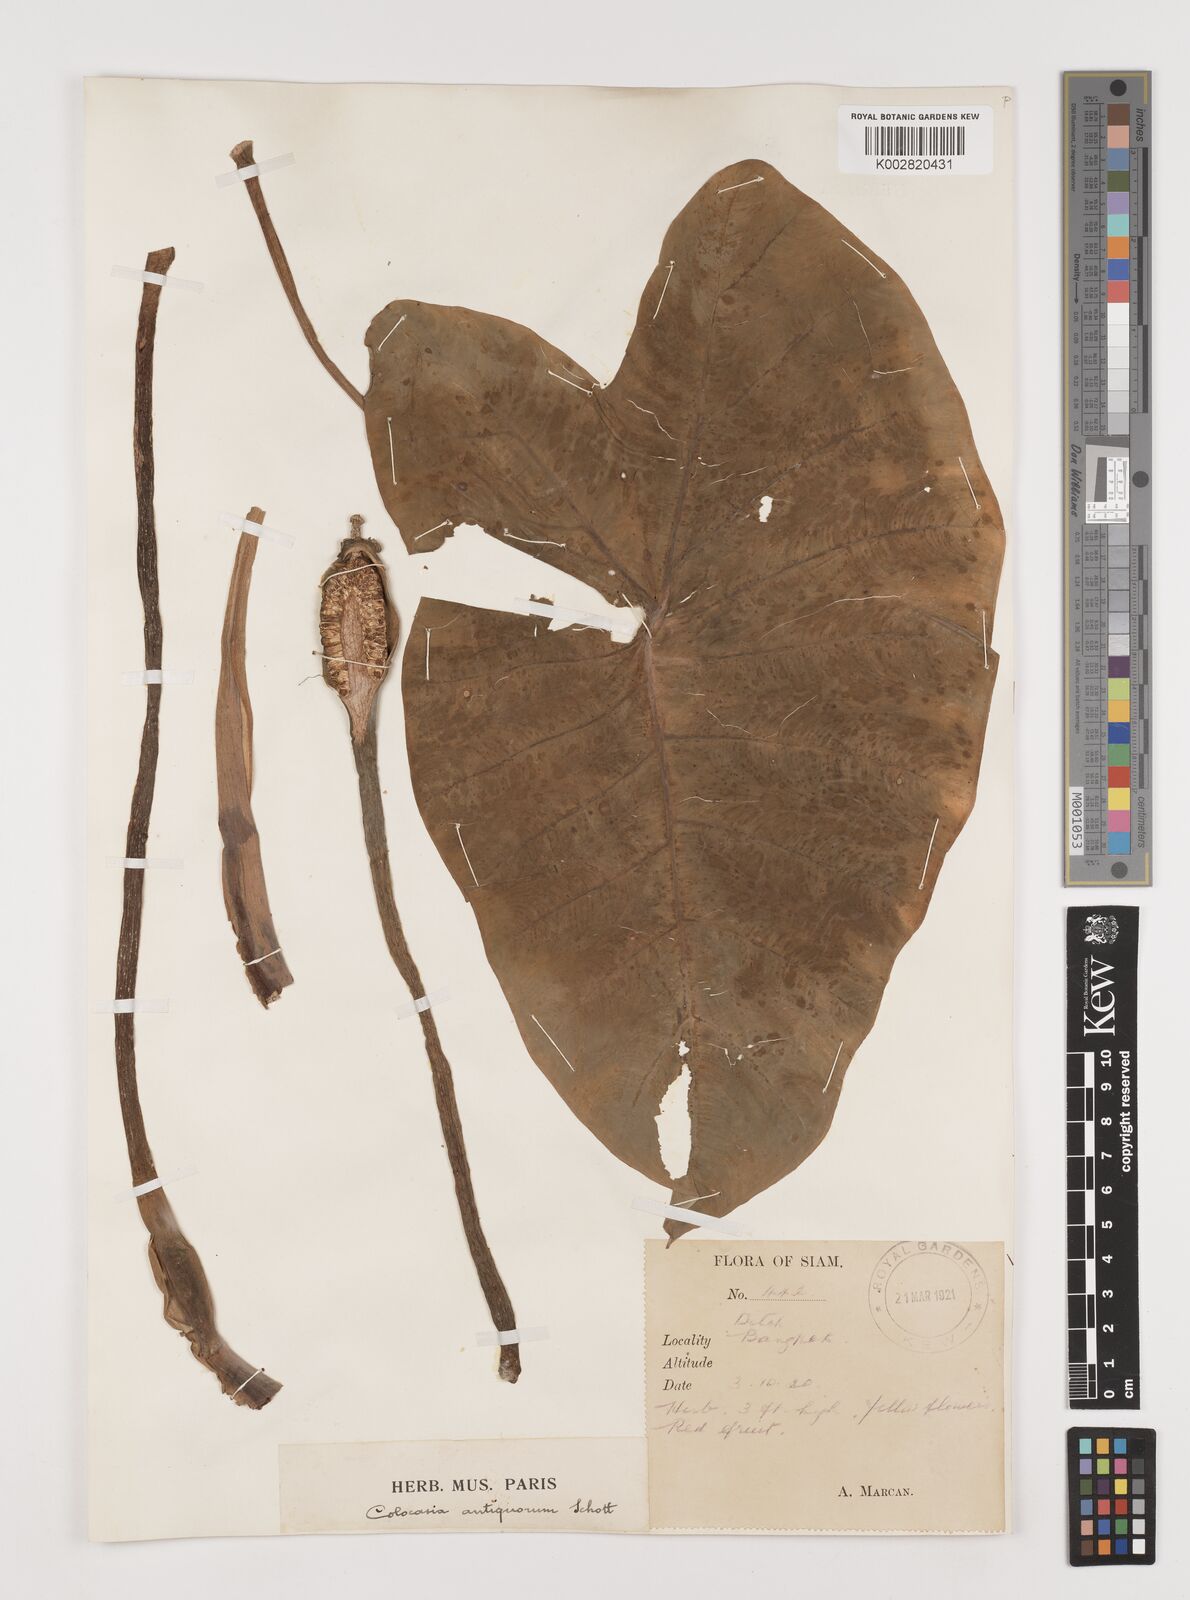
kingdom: Plantae
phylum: Tracheophyta
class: Liliopsida
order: Alismatales
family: Araceae
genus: Colocasia
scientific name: Colocasia esculenta
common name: Taro
